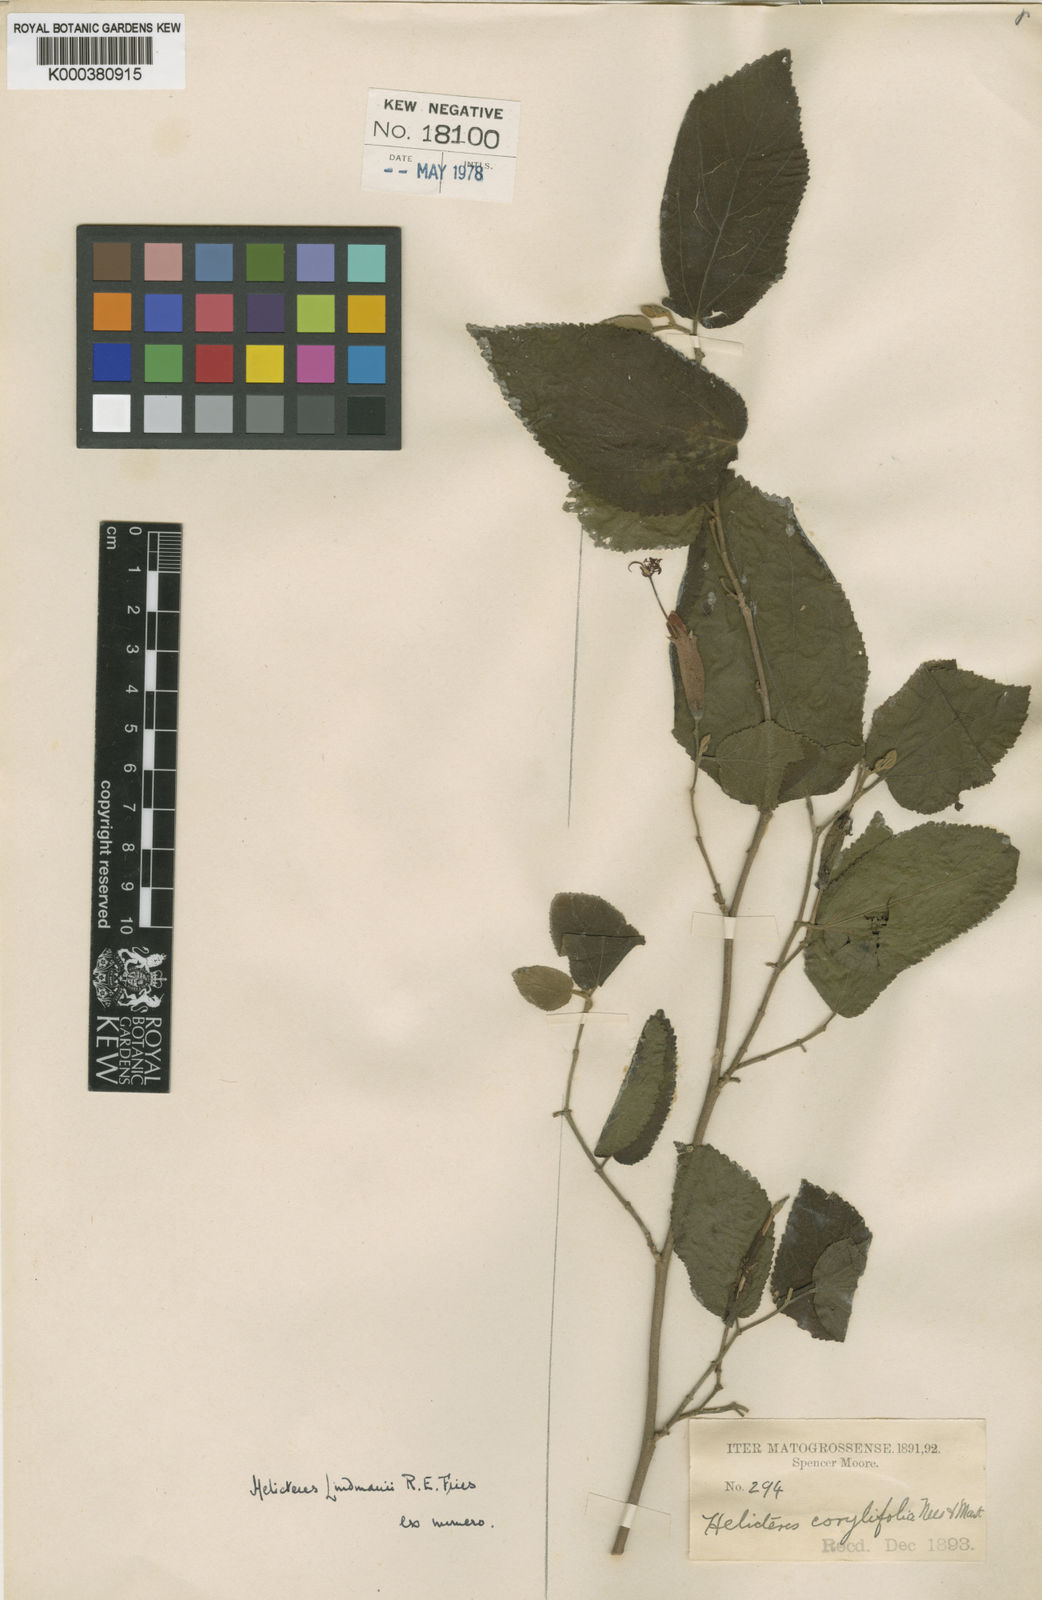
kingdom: Plantae
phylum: Tracheophyta
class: Magnoliopsida
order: Malvales
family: Malvaceae
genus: Helicteres
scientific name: Helicteres corylifolia
